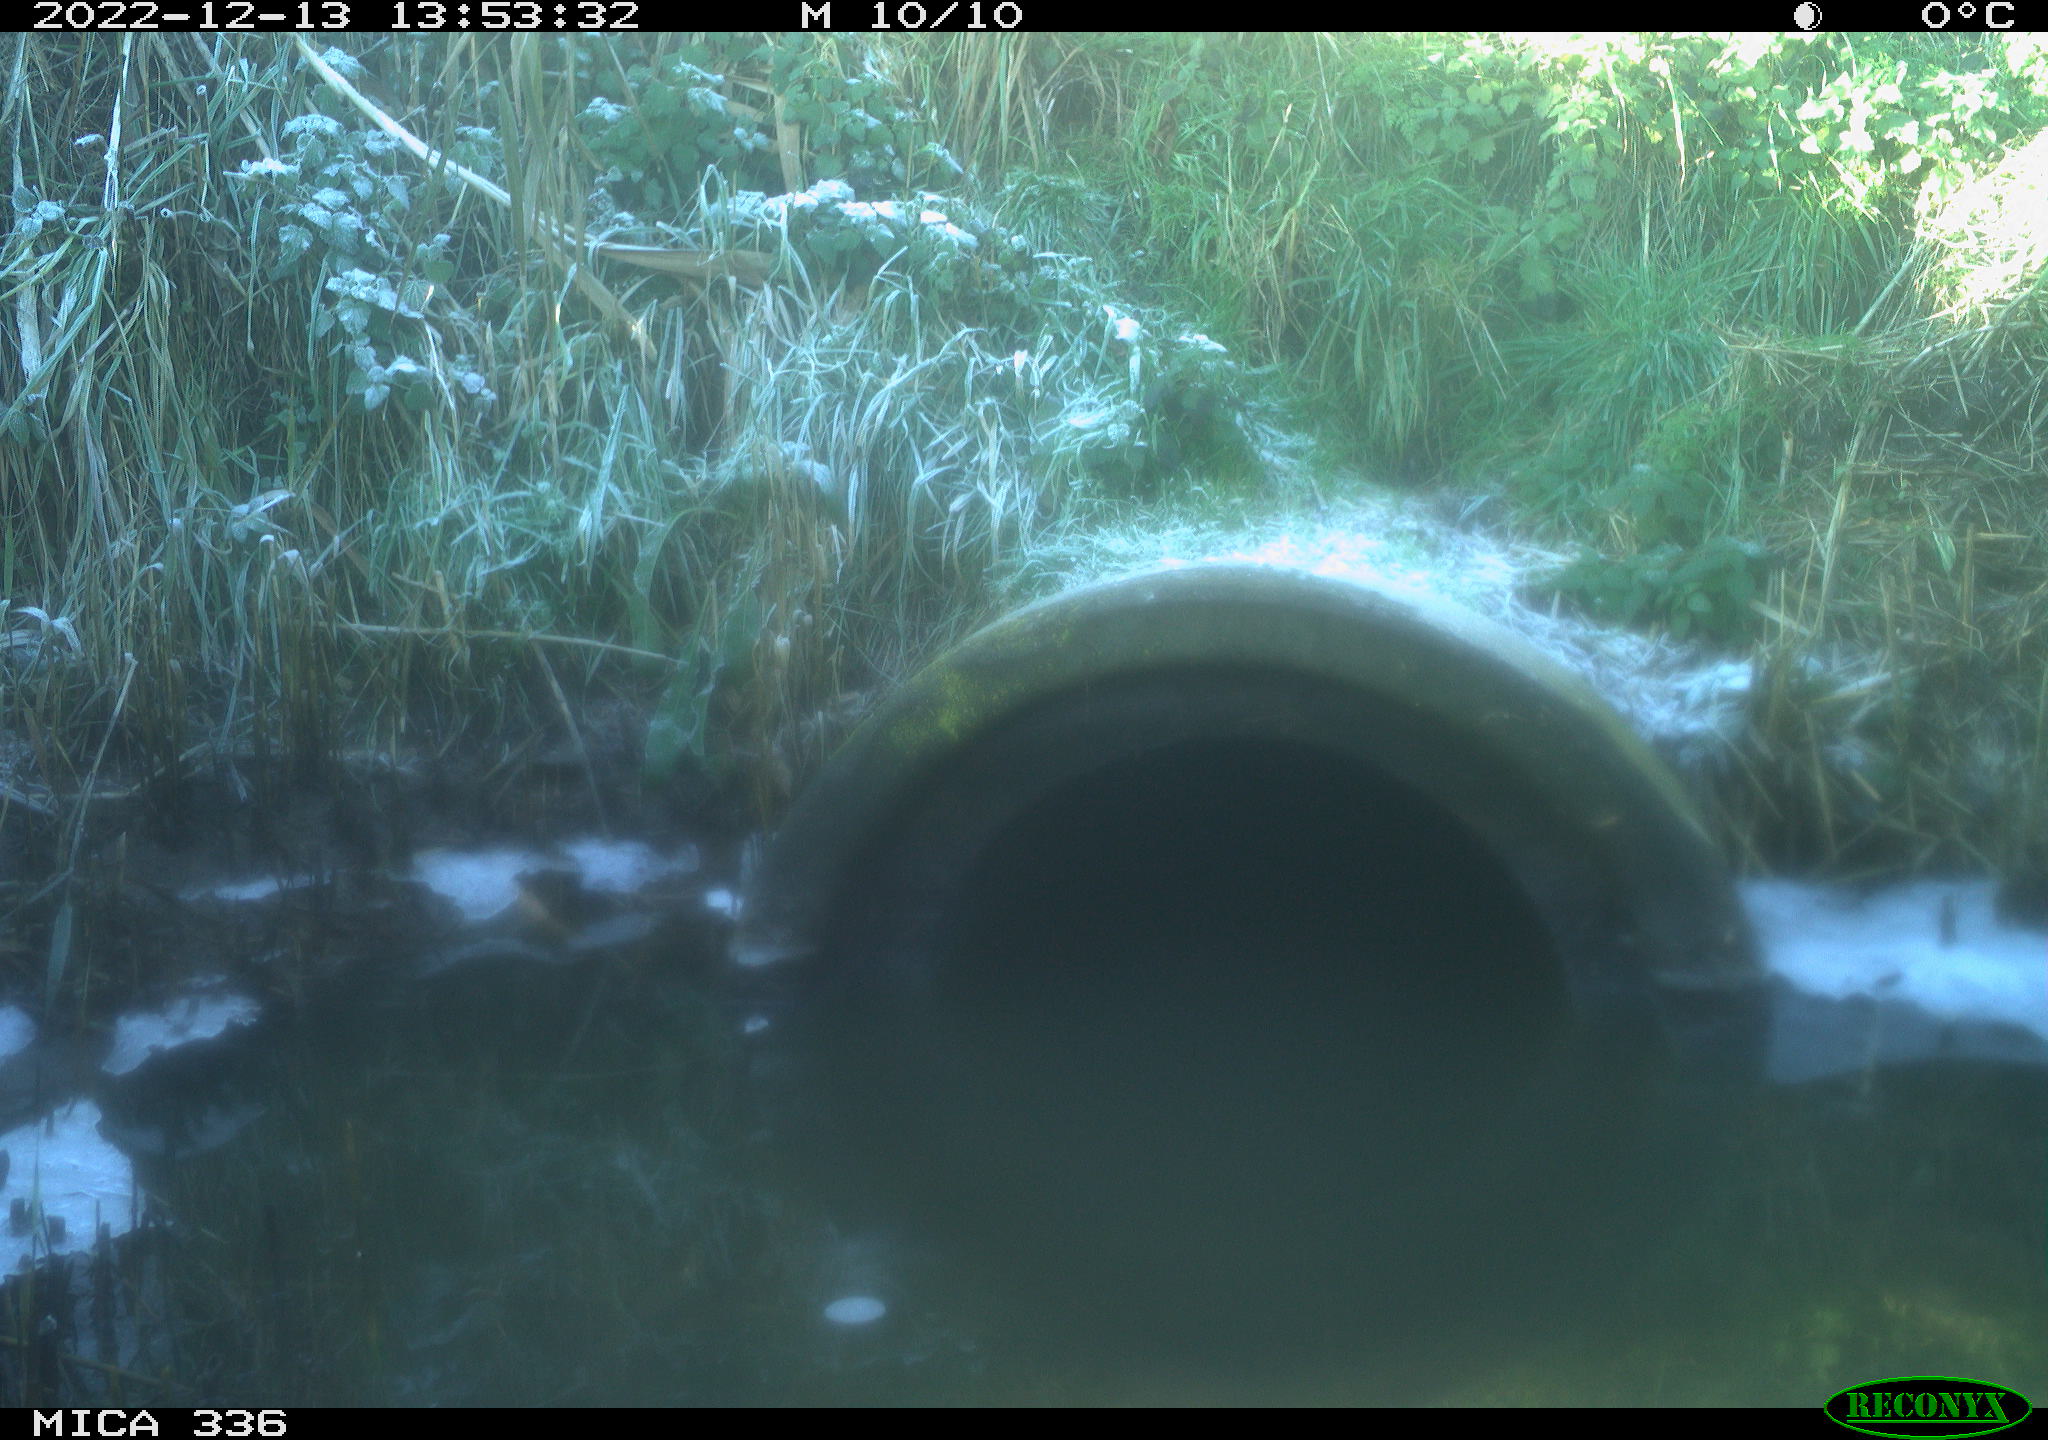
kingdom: Animalia
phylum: Chordata
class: Aves
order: Gruiformes
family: Rallidae
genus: Rallus
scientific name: Rallus aquaticus
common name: Water rail
